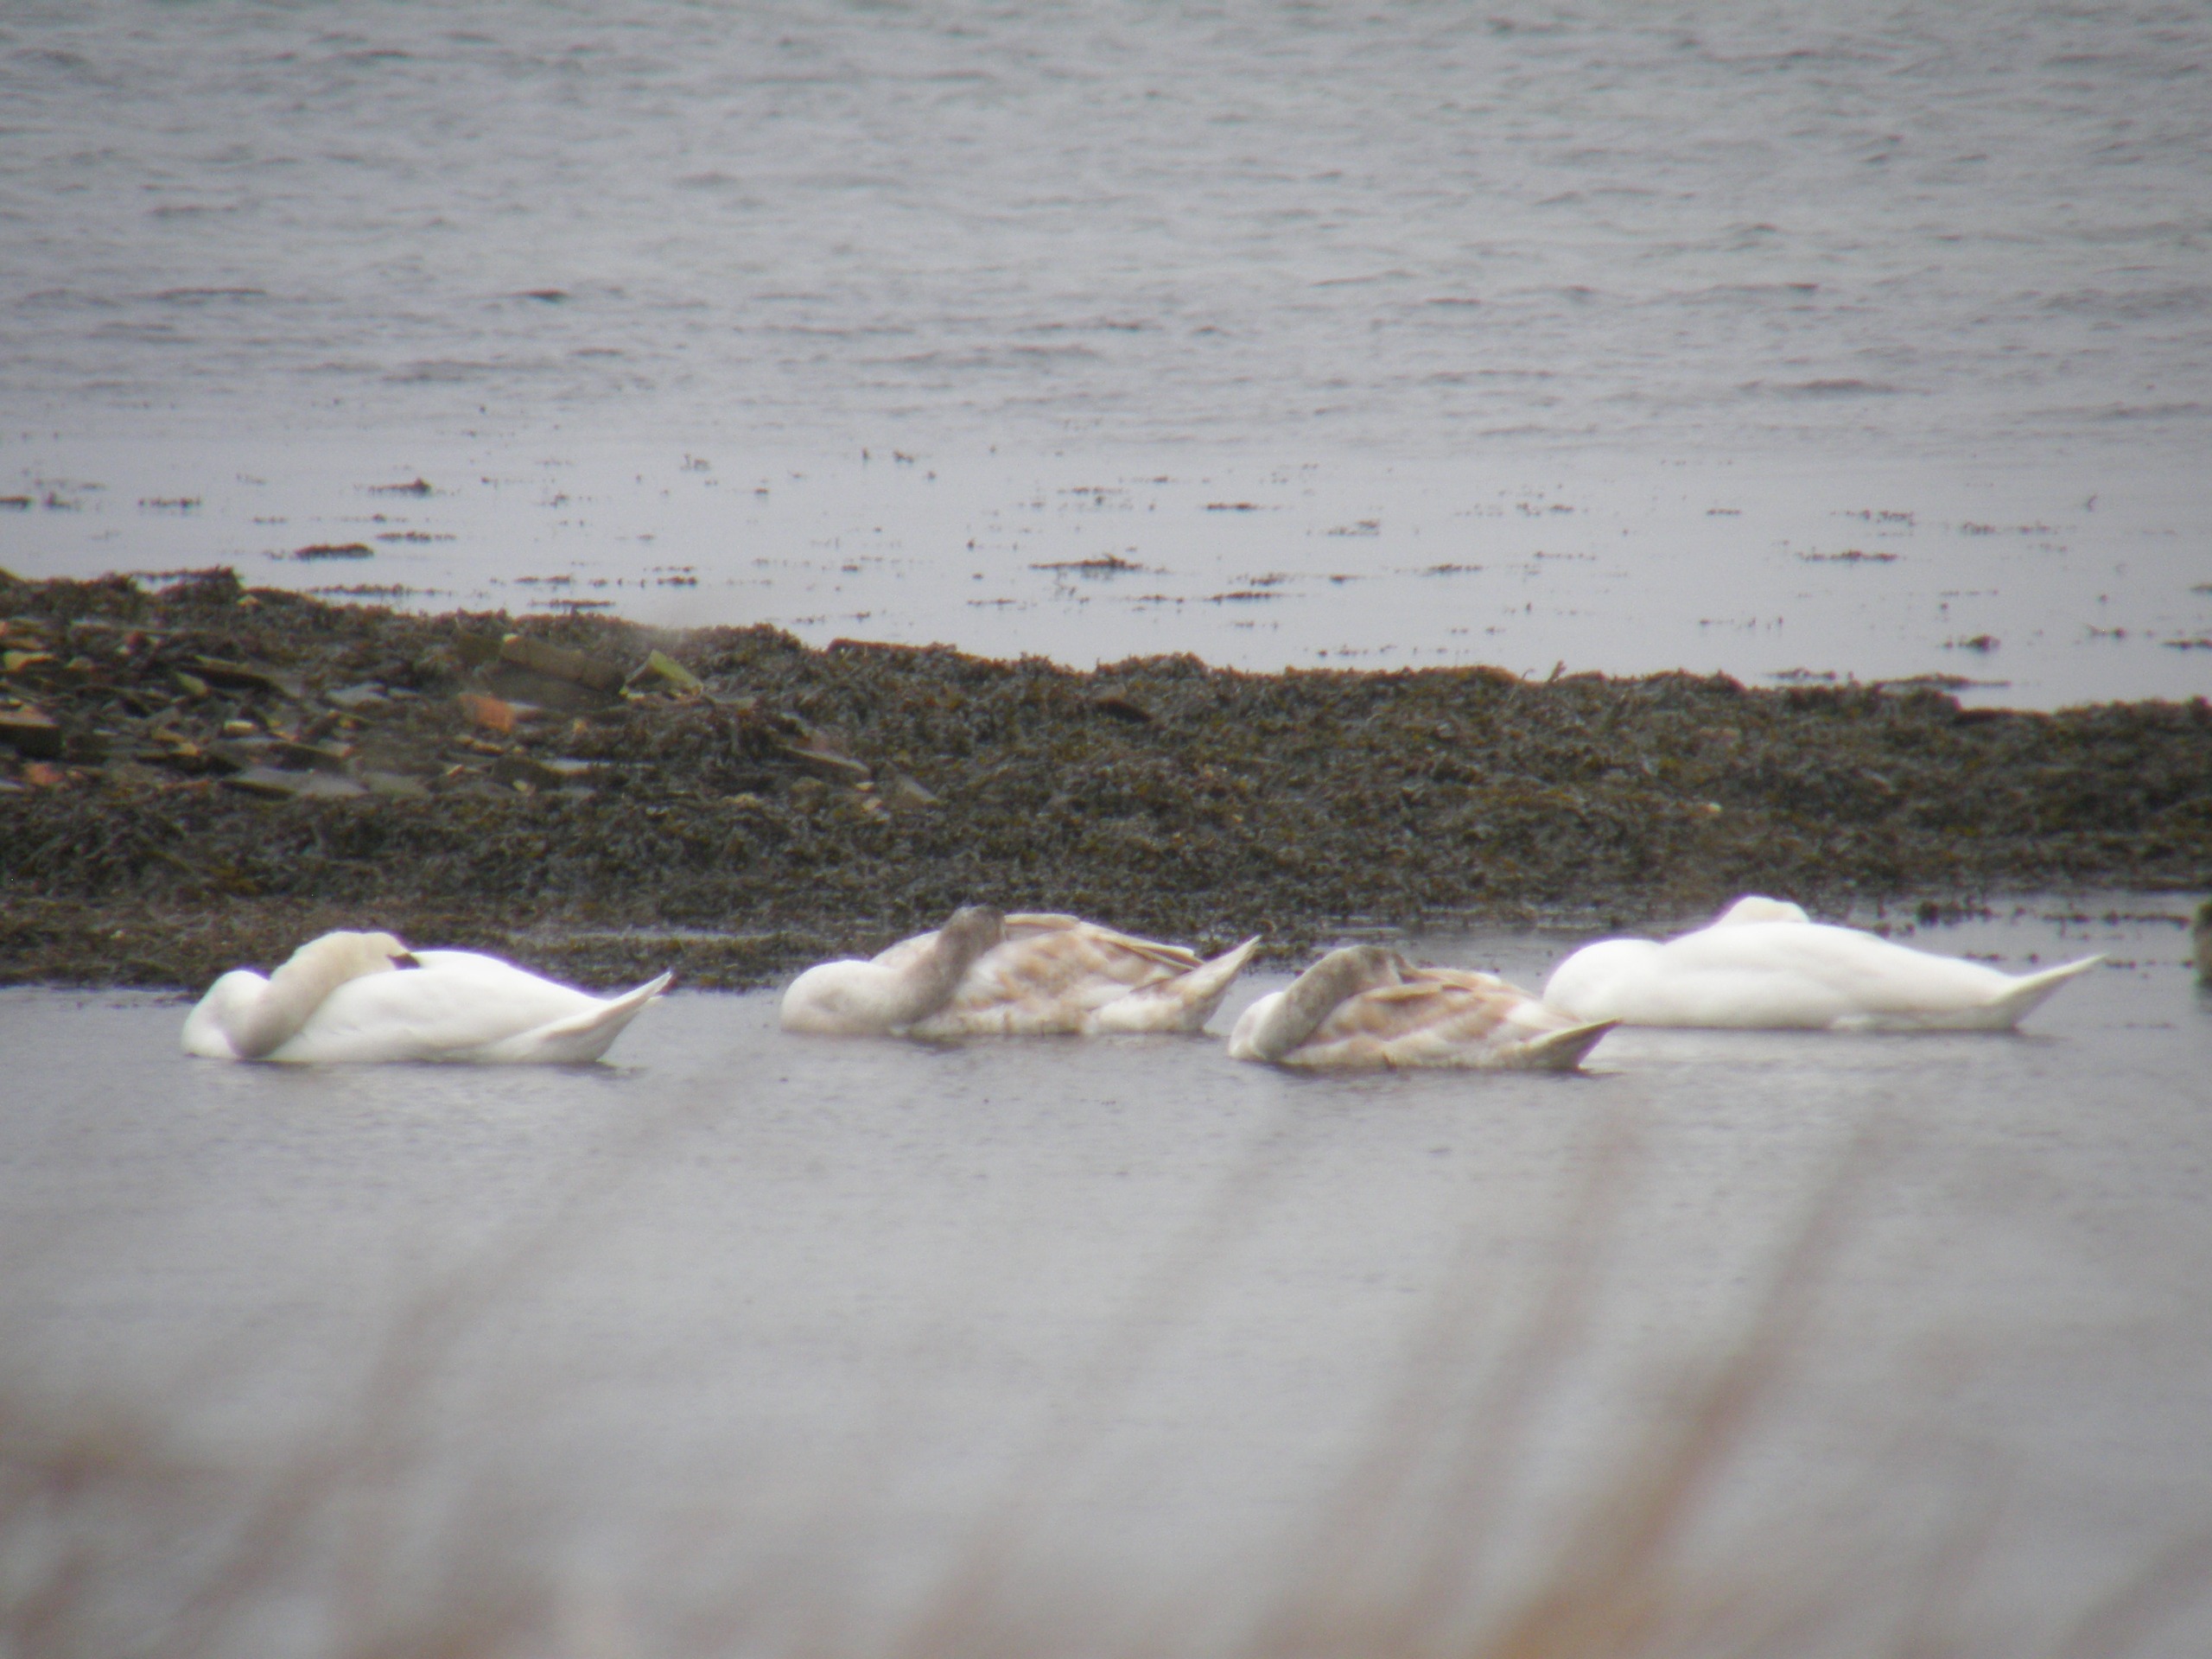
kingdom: Animalia
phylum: Chordata
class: Aves
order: Anseriformes
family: Anatidae
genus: Cygnus
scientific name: Cygnus olor
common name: Knopsvane
